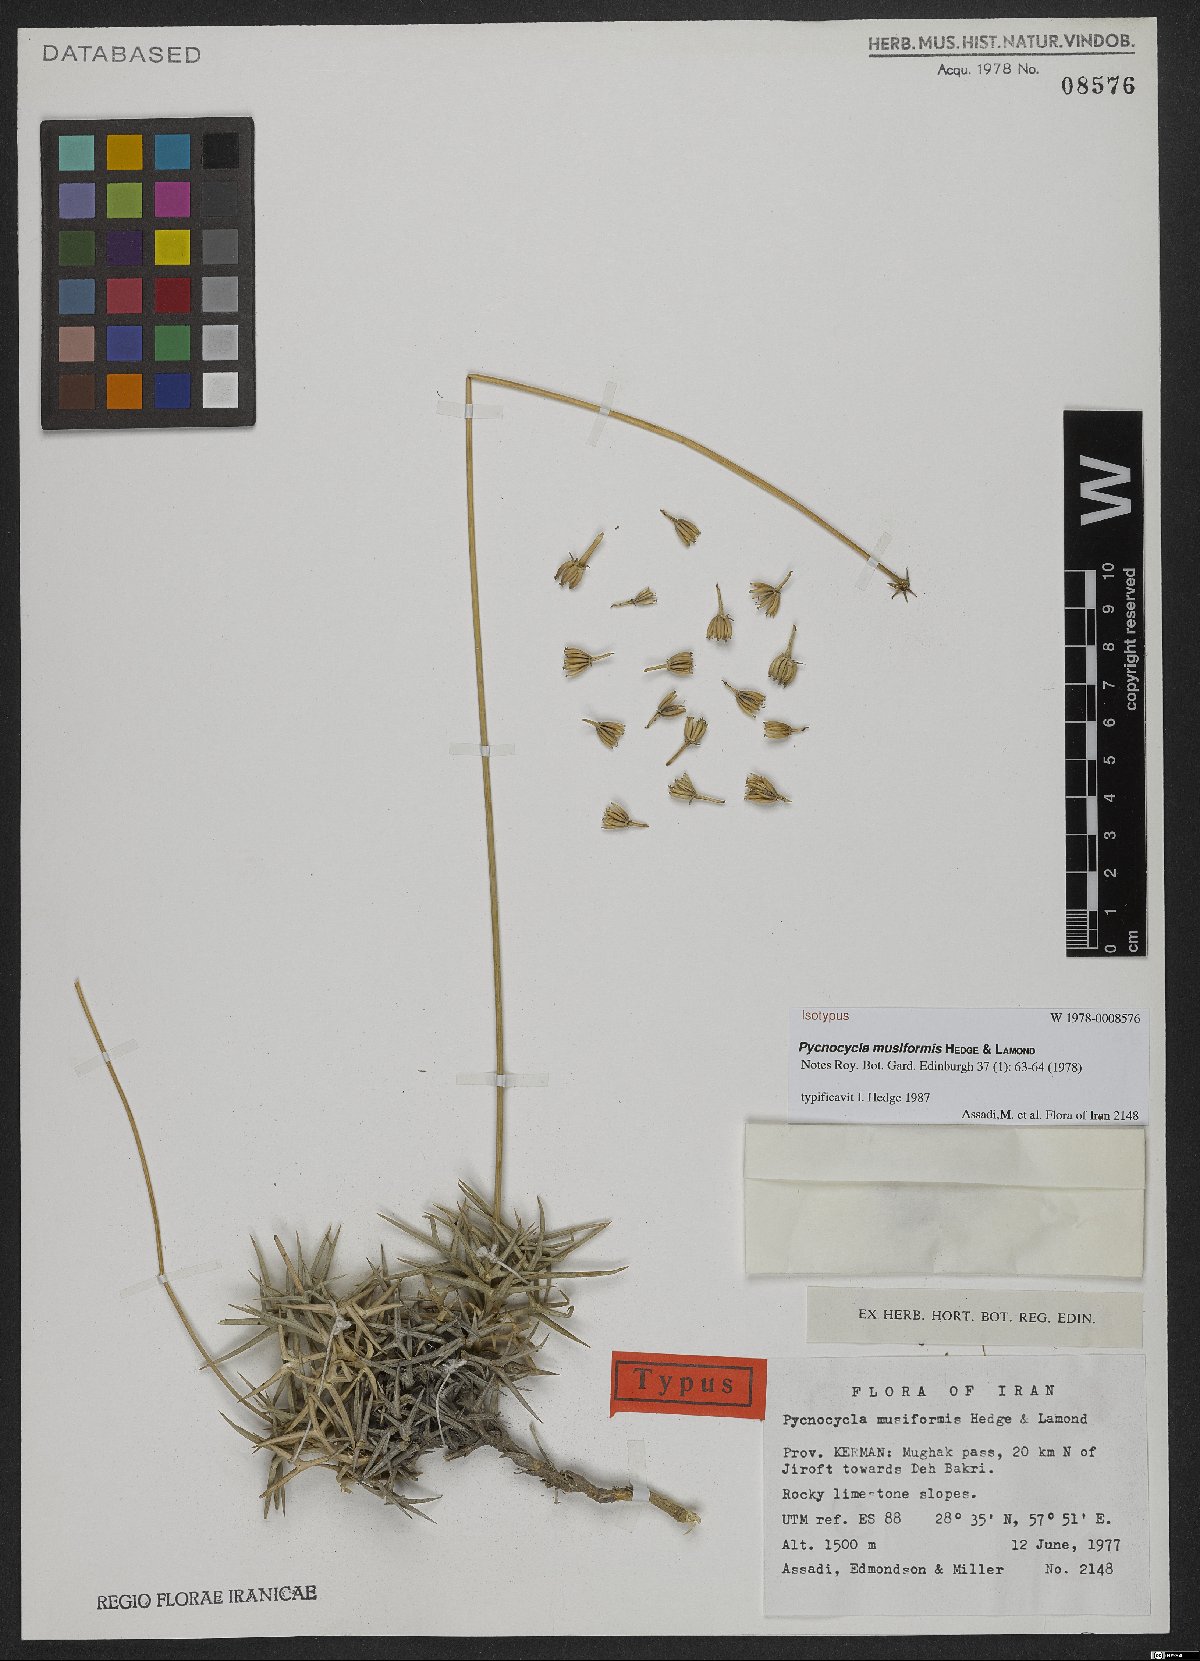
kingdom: Plantae
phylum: Tracheophyta
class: Magnoliopsida
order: Apiales
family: Apiaceae
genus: Pycnocycla
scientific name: Pycnocycla musiformis
